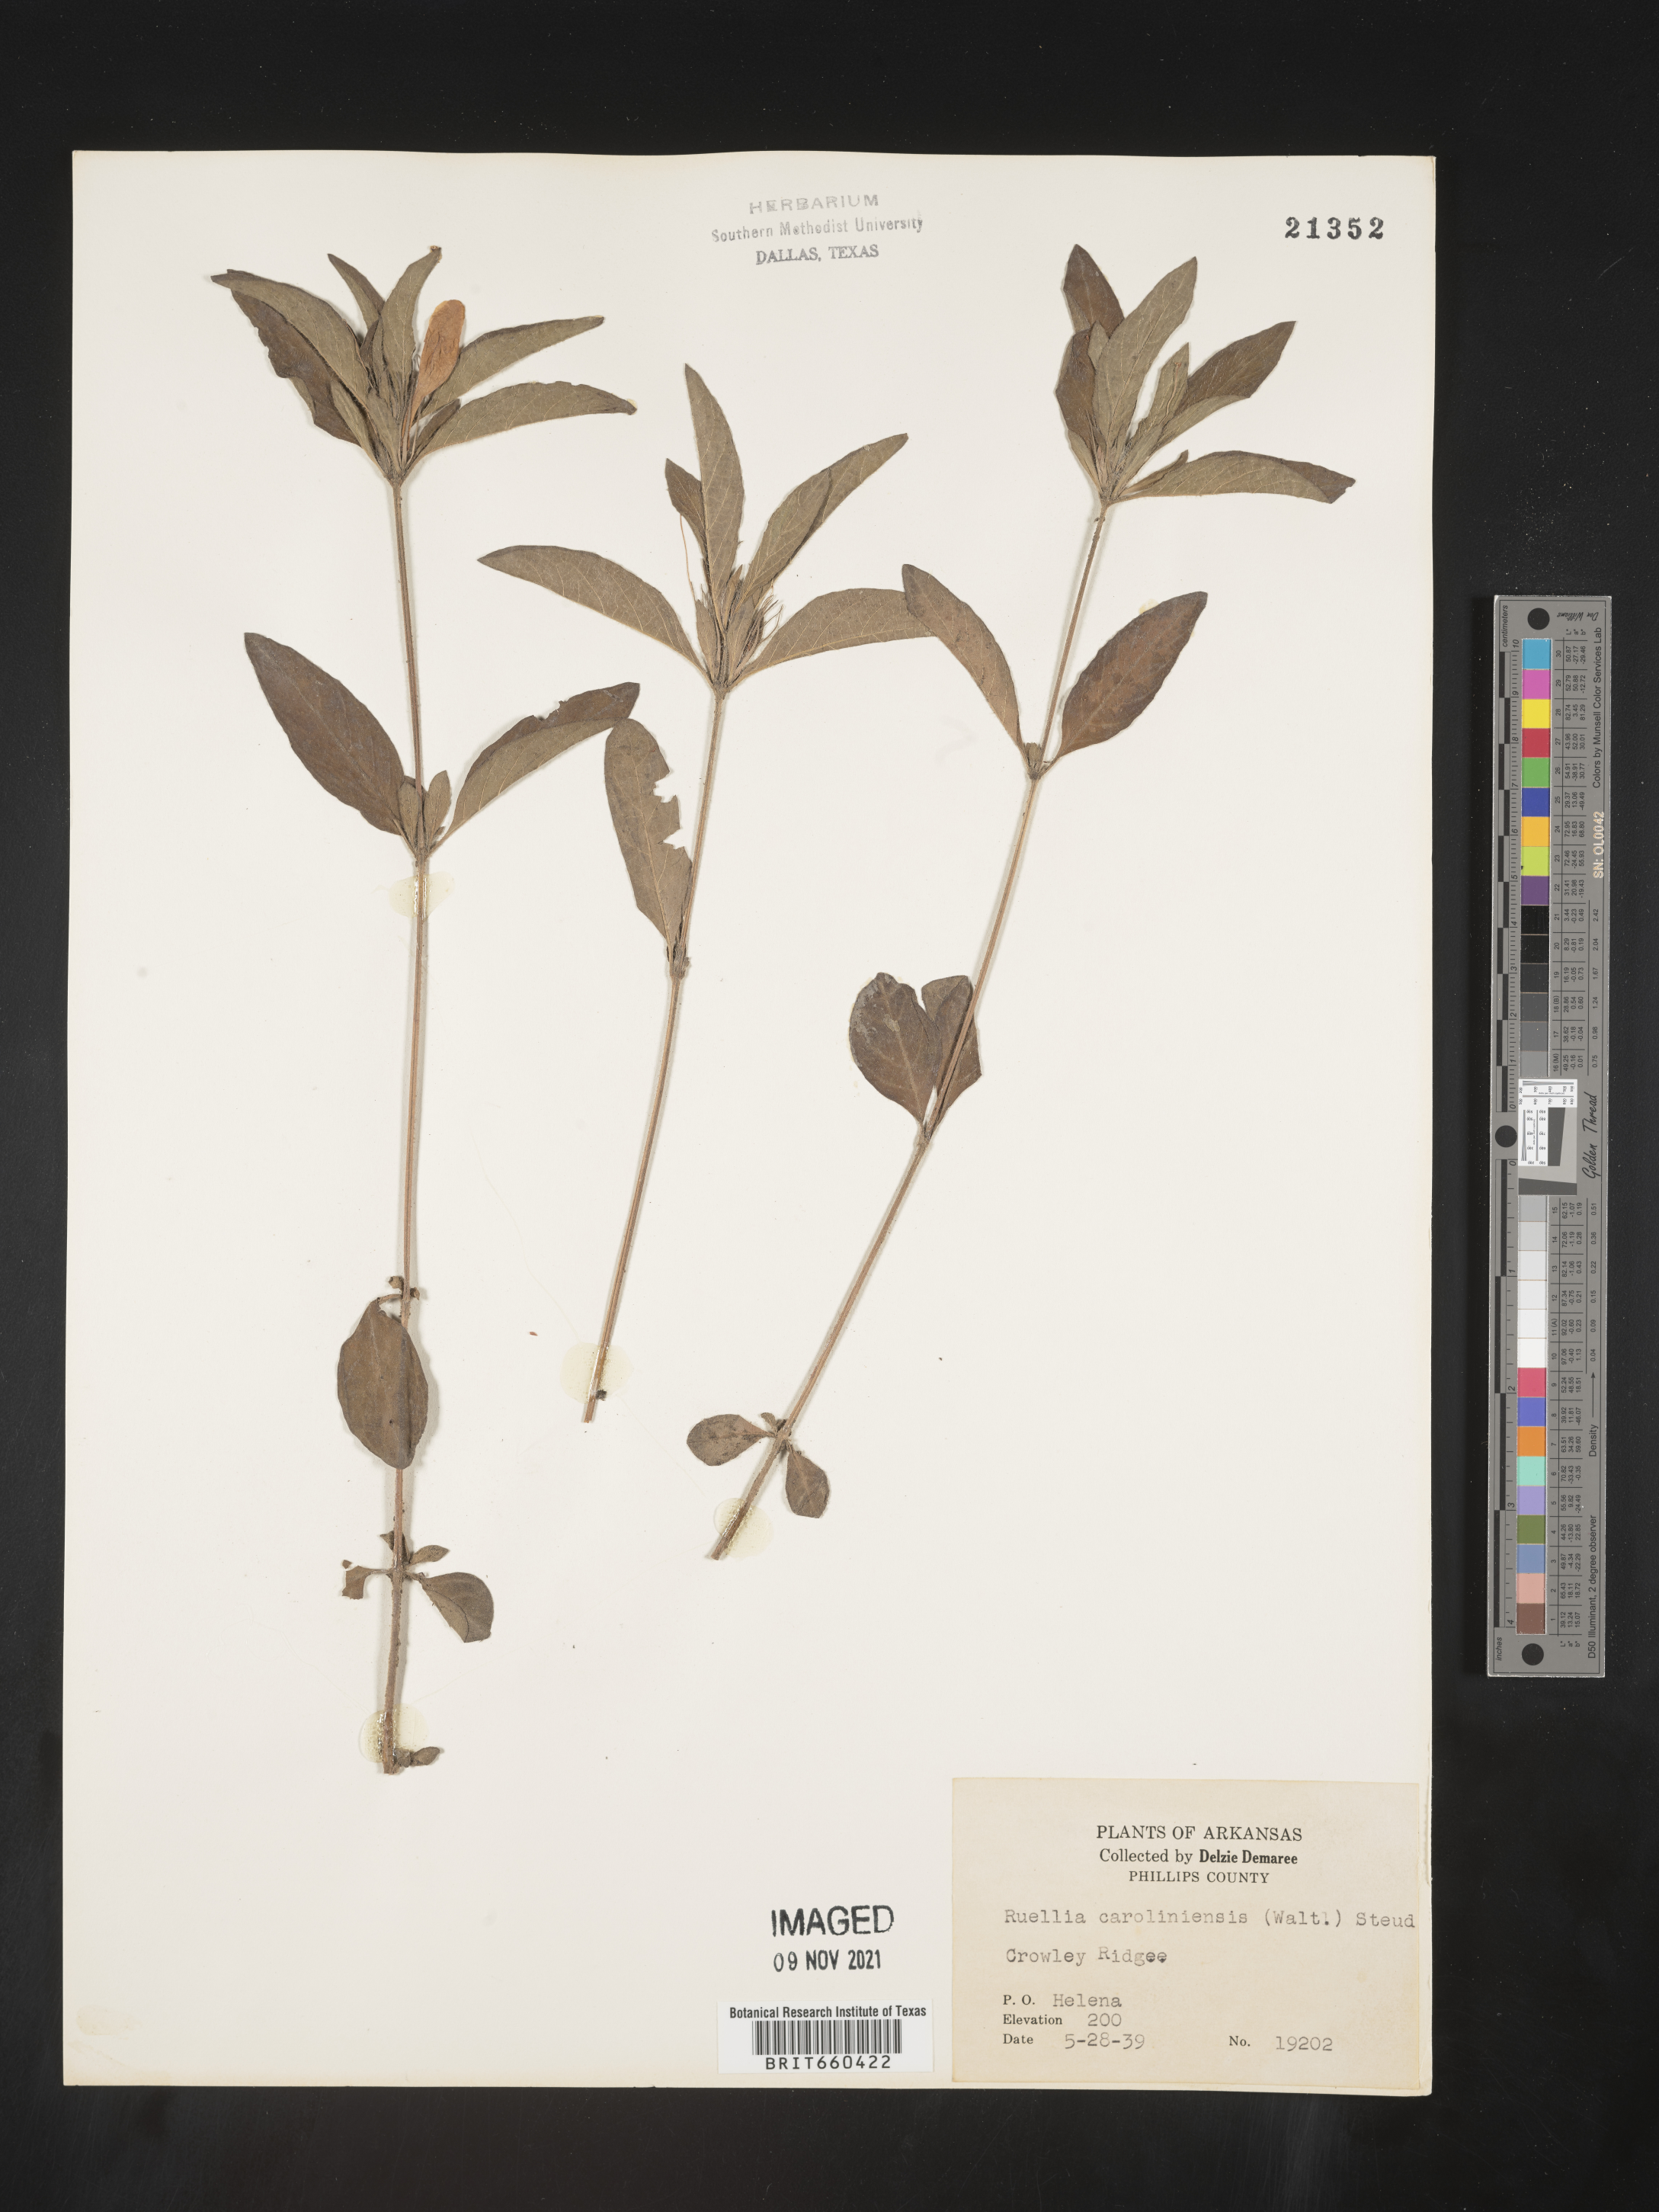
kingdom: Plantae
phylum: Tracheophyta
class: Magnoliopsida
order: Lamiales
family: Acanthaceae
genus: Ruellia
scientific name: Ruellia caroliniensis
